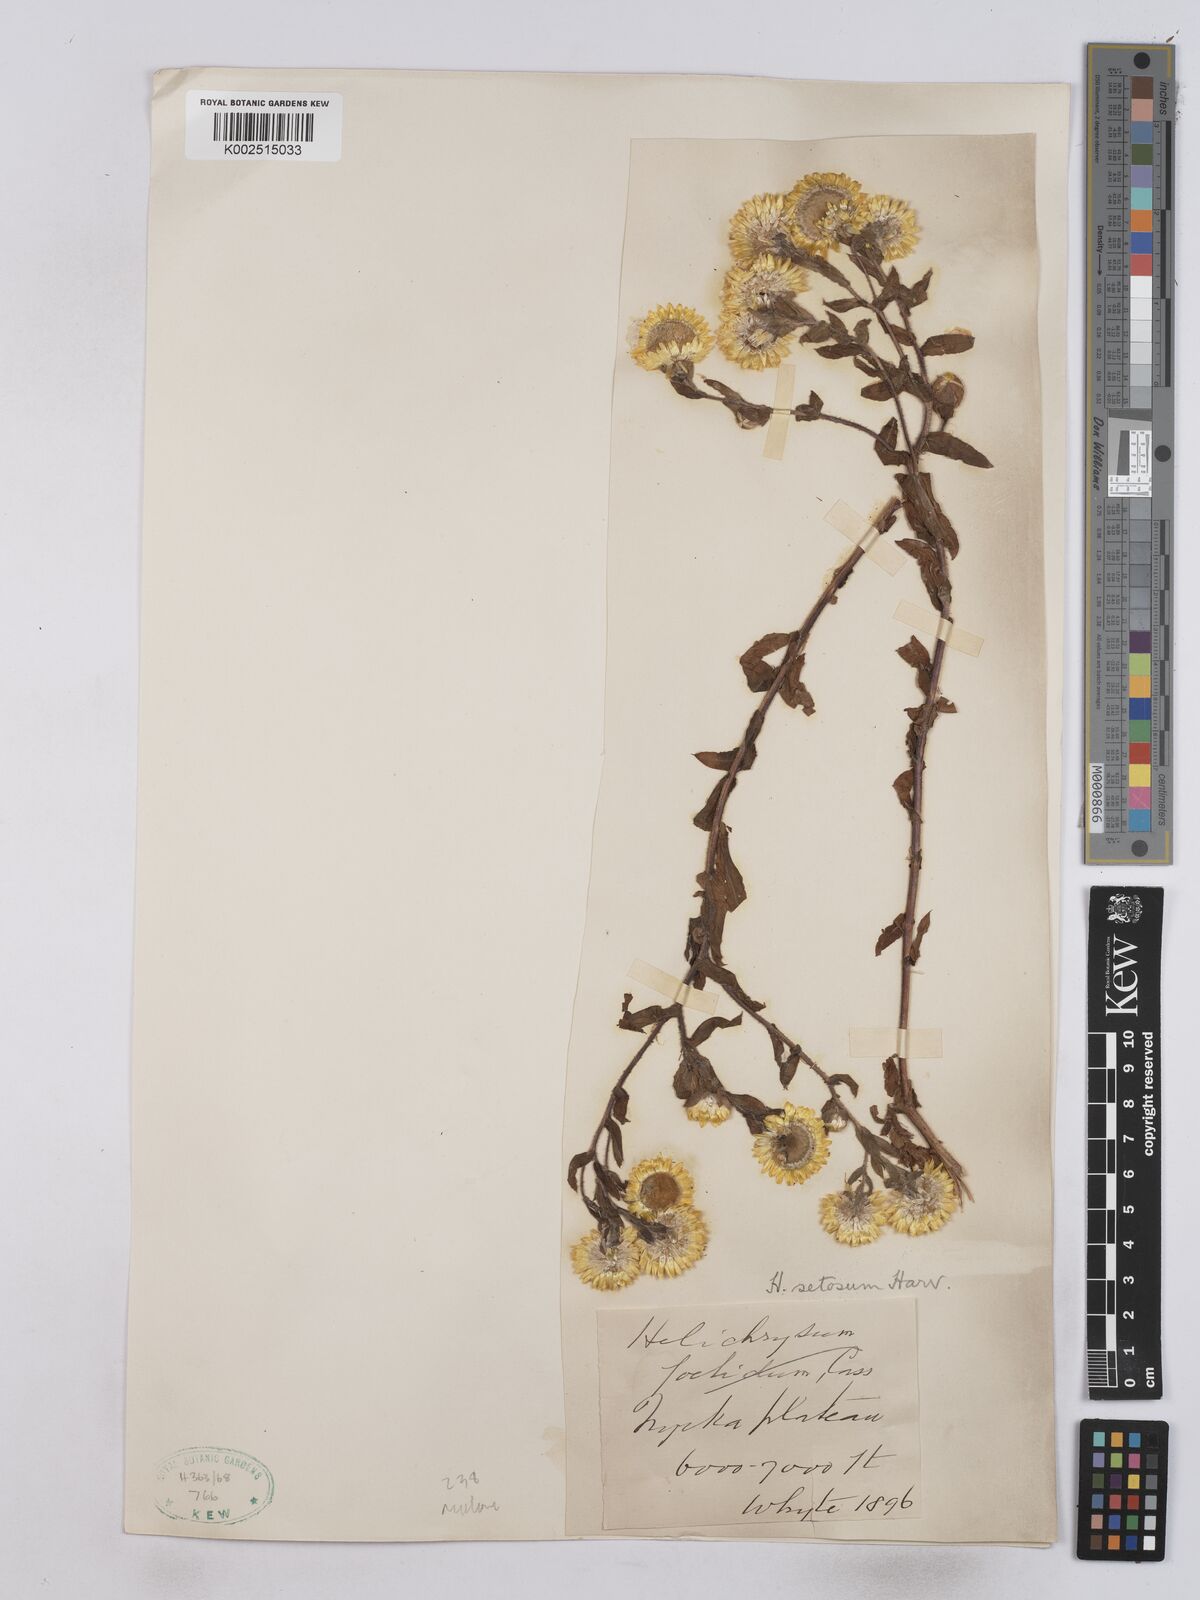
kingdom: Plantae
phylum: Tracheophyta
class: Magnoliopsida
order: Asterales
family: Asteraceae
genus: Helichrysum
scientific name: Helichrysum setosum
